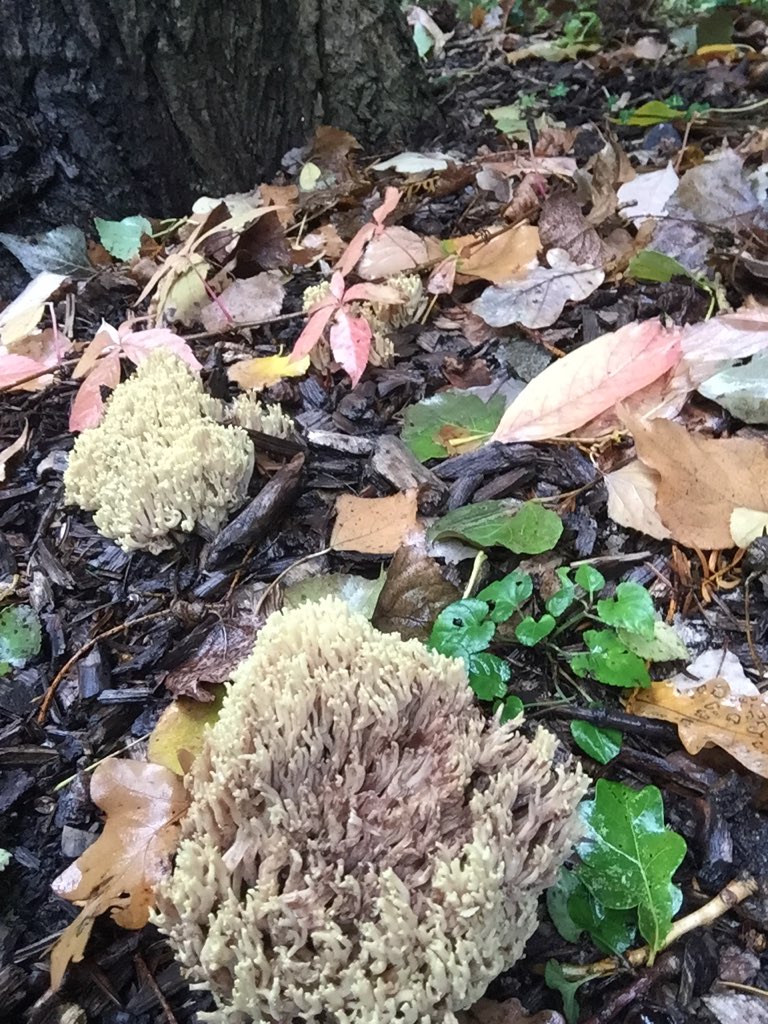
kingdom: Fungi
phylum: Basidiomycota
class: Agaricomycetes
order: Gomphales
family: Gomphaceae
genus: Ramaria
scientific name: Ramaria stricta
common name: rank koralsvamp
